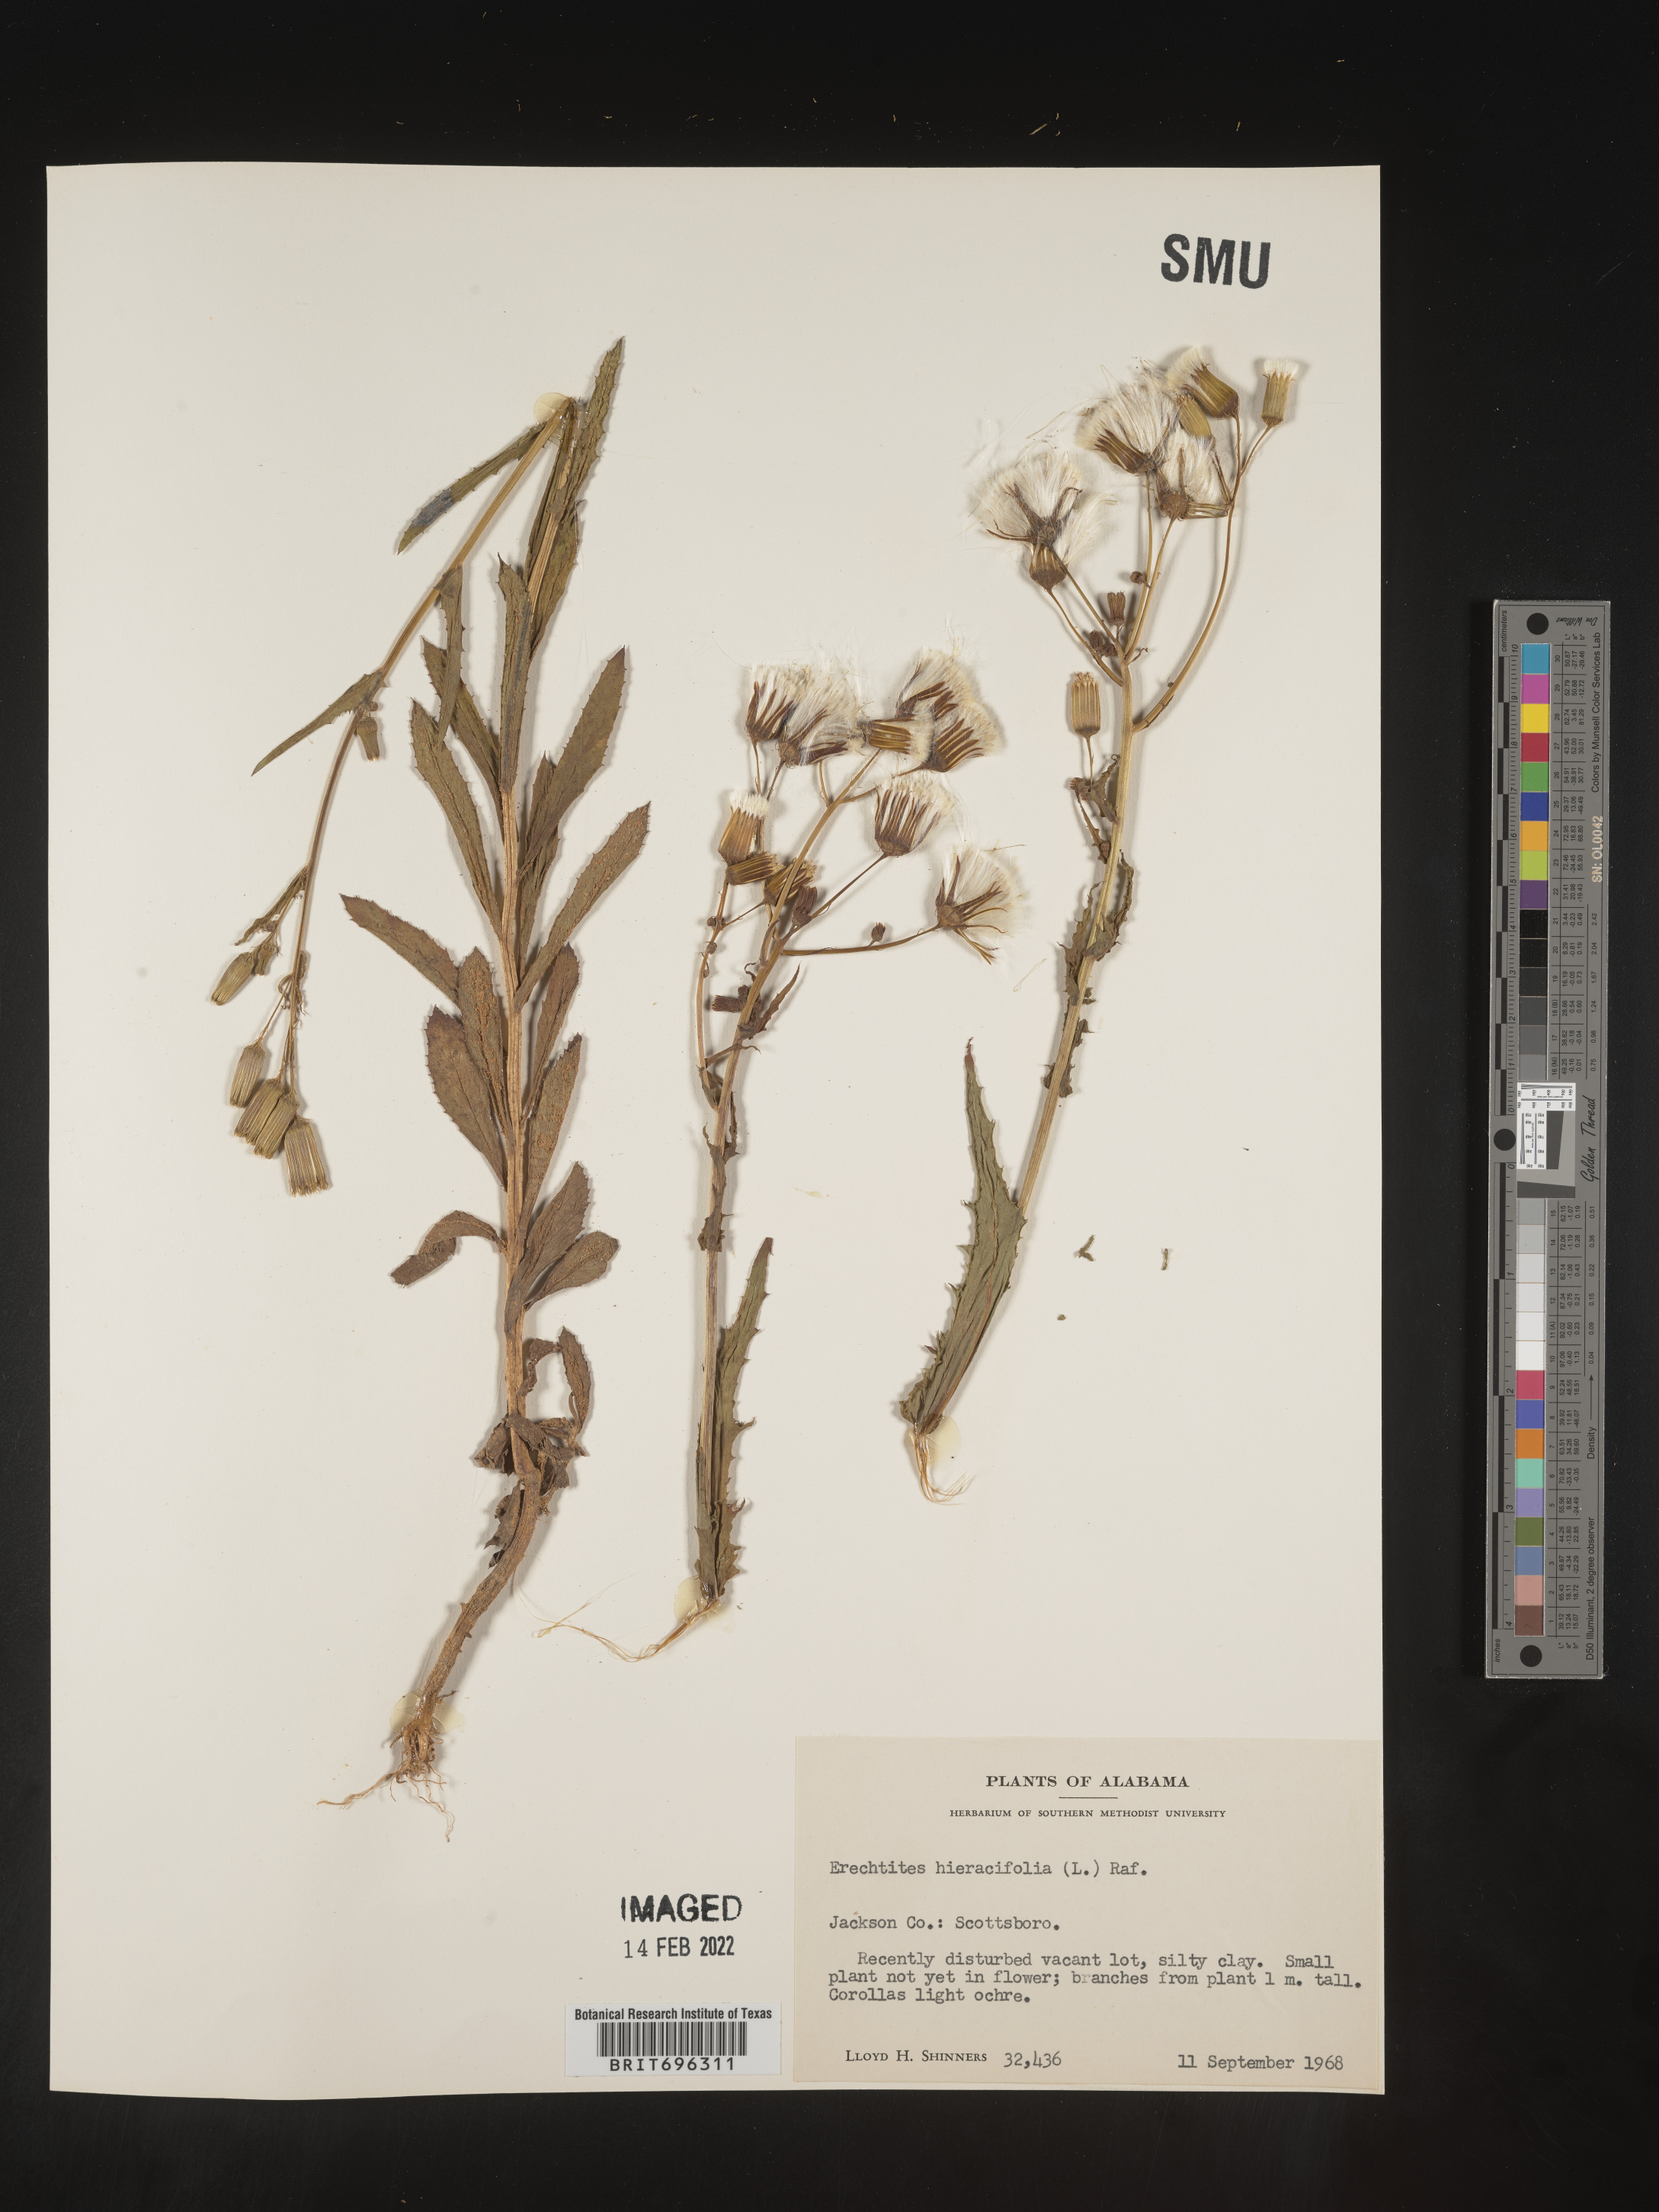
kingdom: Plantae
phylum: Tracheophyta
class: Magnoliopsida
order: Asterales
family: Asteraceae
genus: Erechtites
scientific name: Erechtites hieraciifolius
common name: American burnweed
